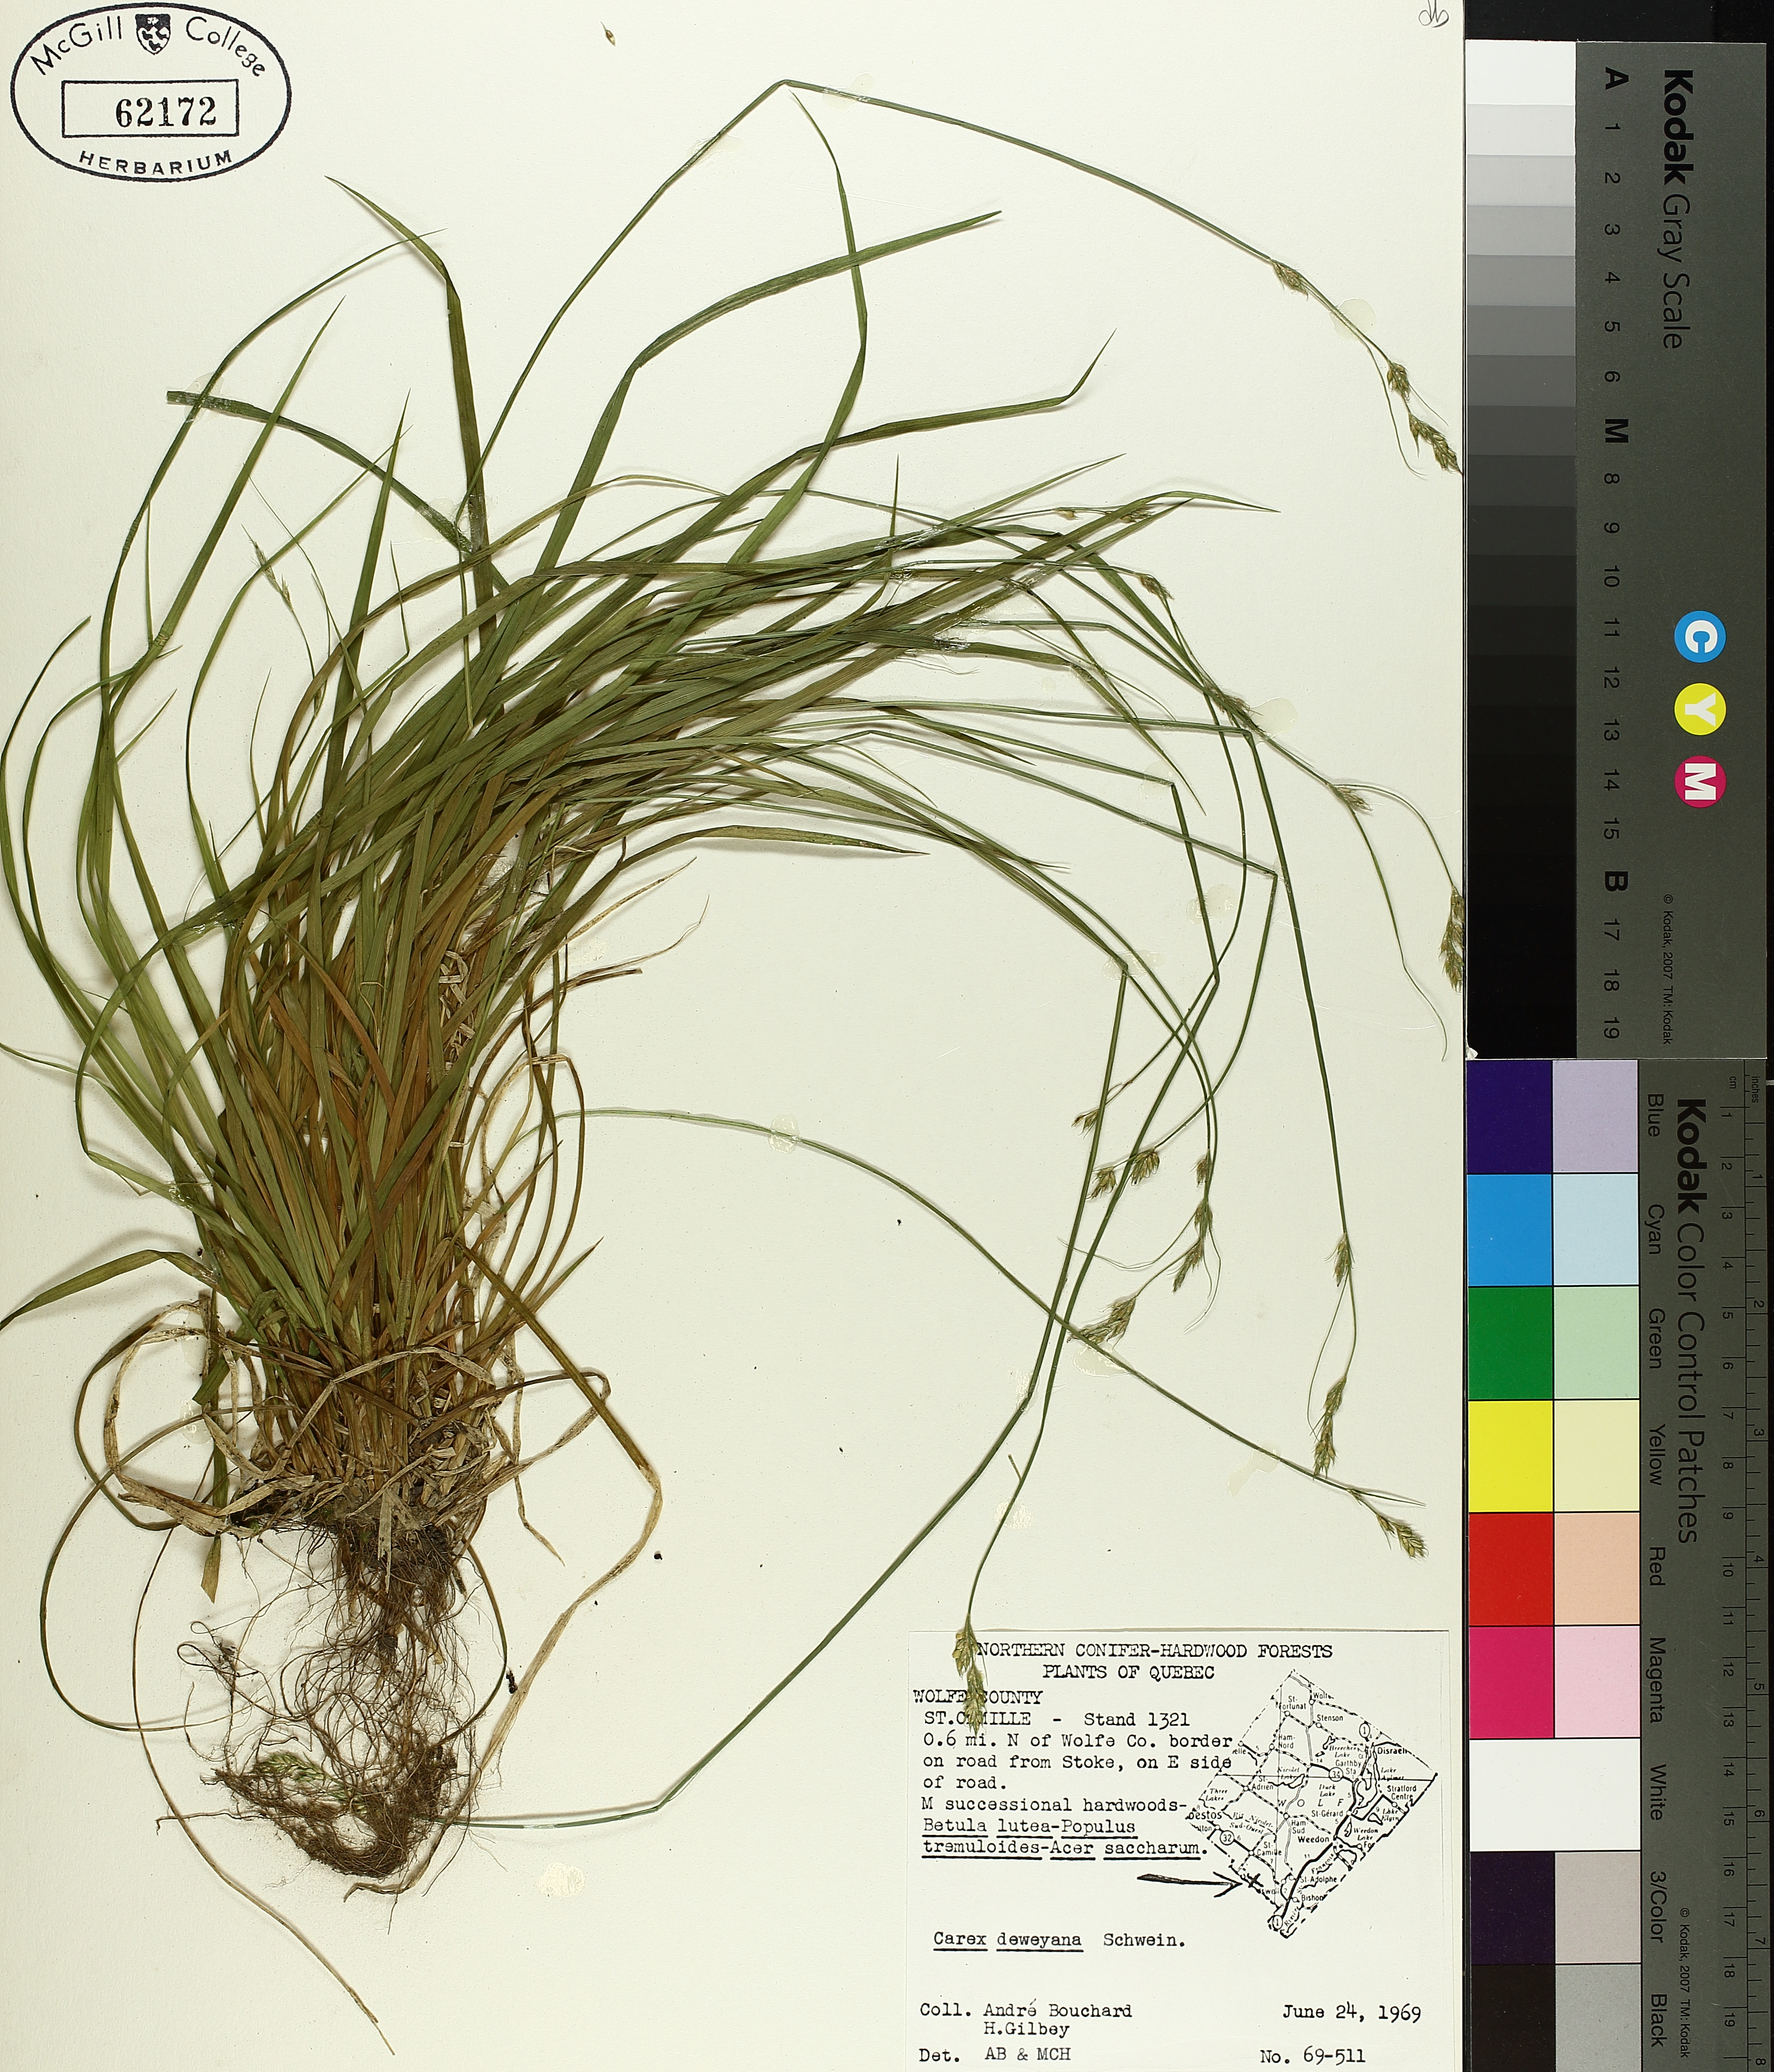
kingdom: Plantae
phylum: Tracheophyta
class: Liliopsida
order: Poales
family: Cyperaceae
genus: Carex
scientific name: Carex deweyana
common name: Dewey's sedge
